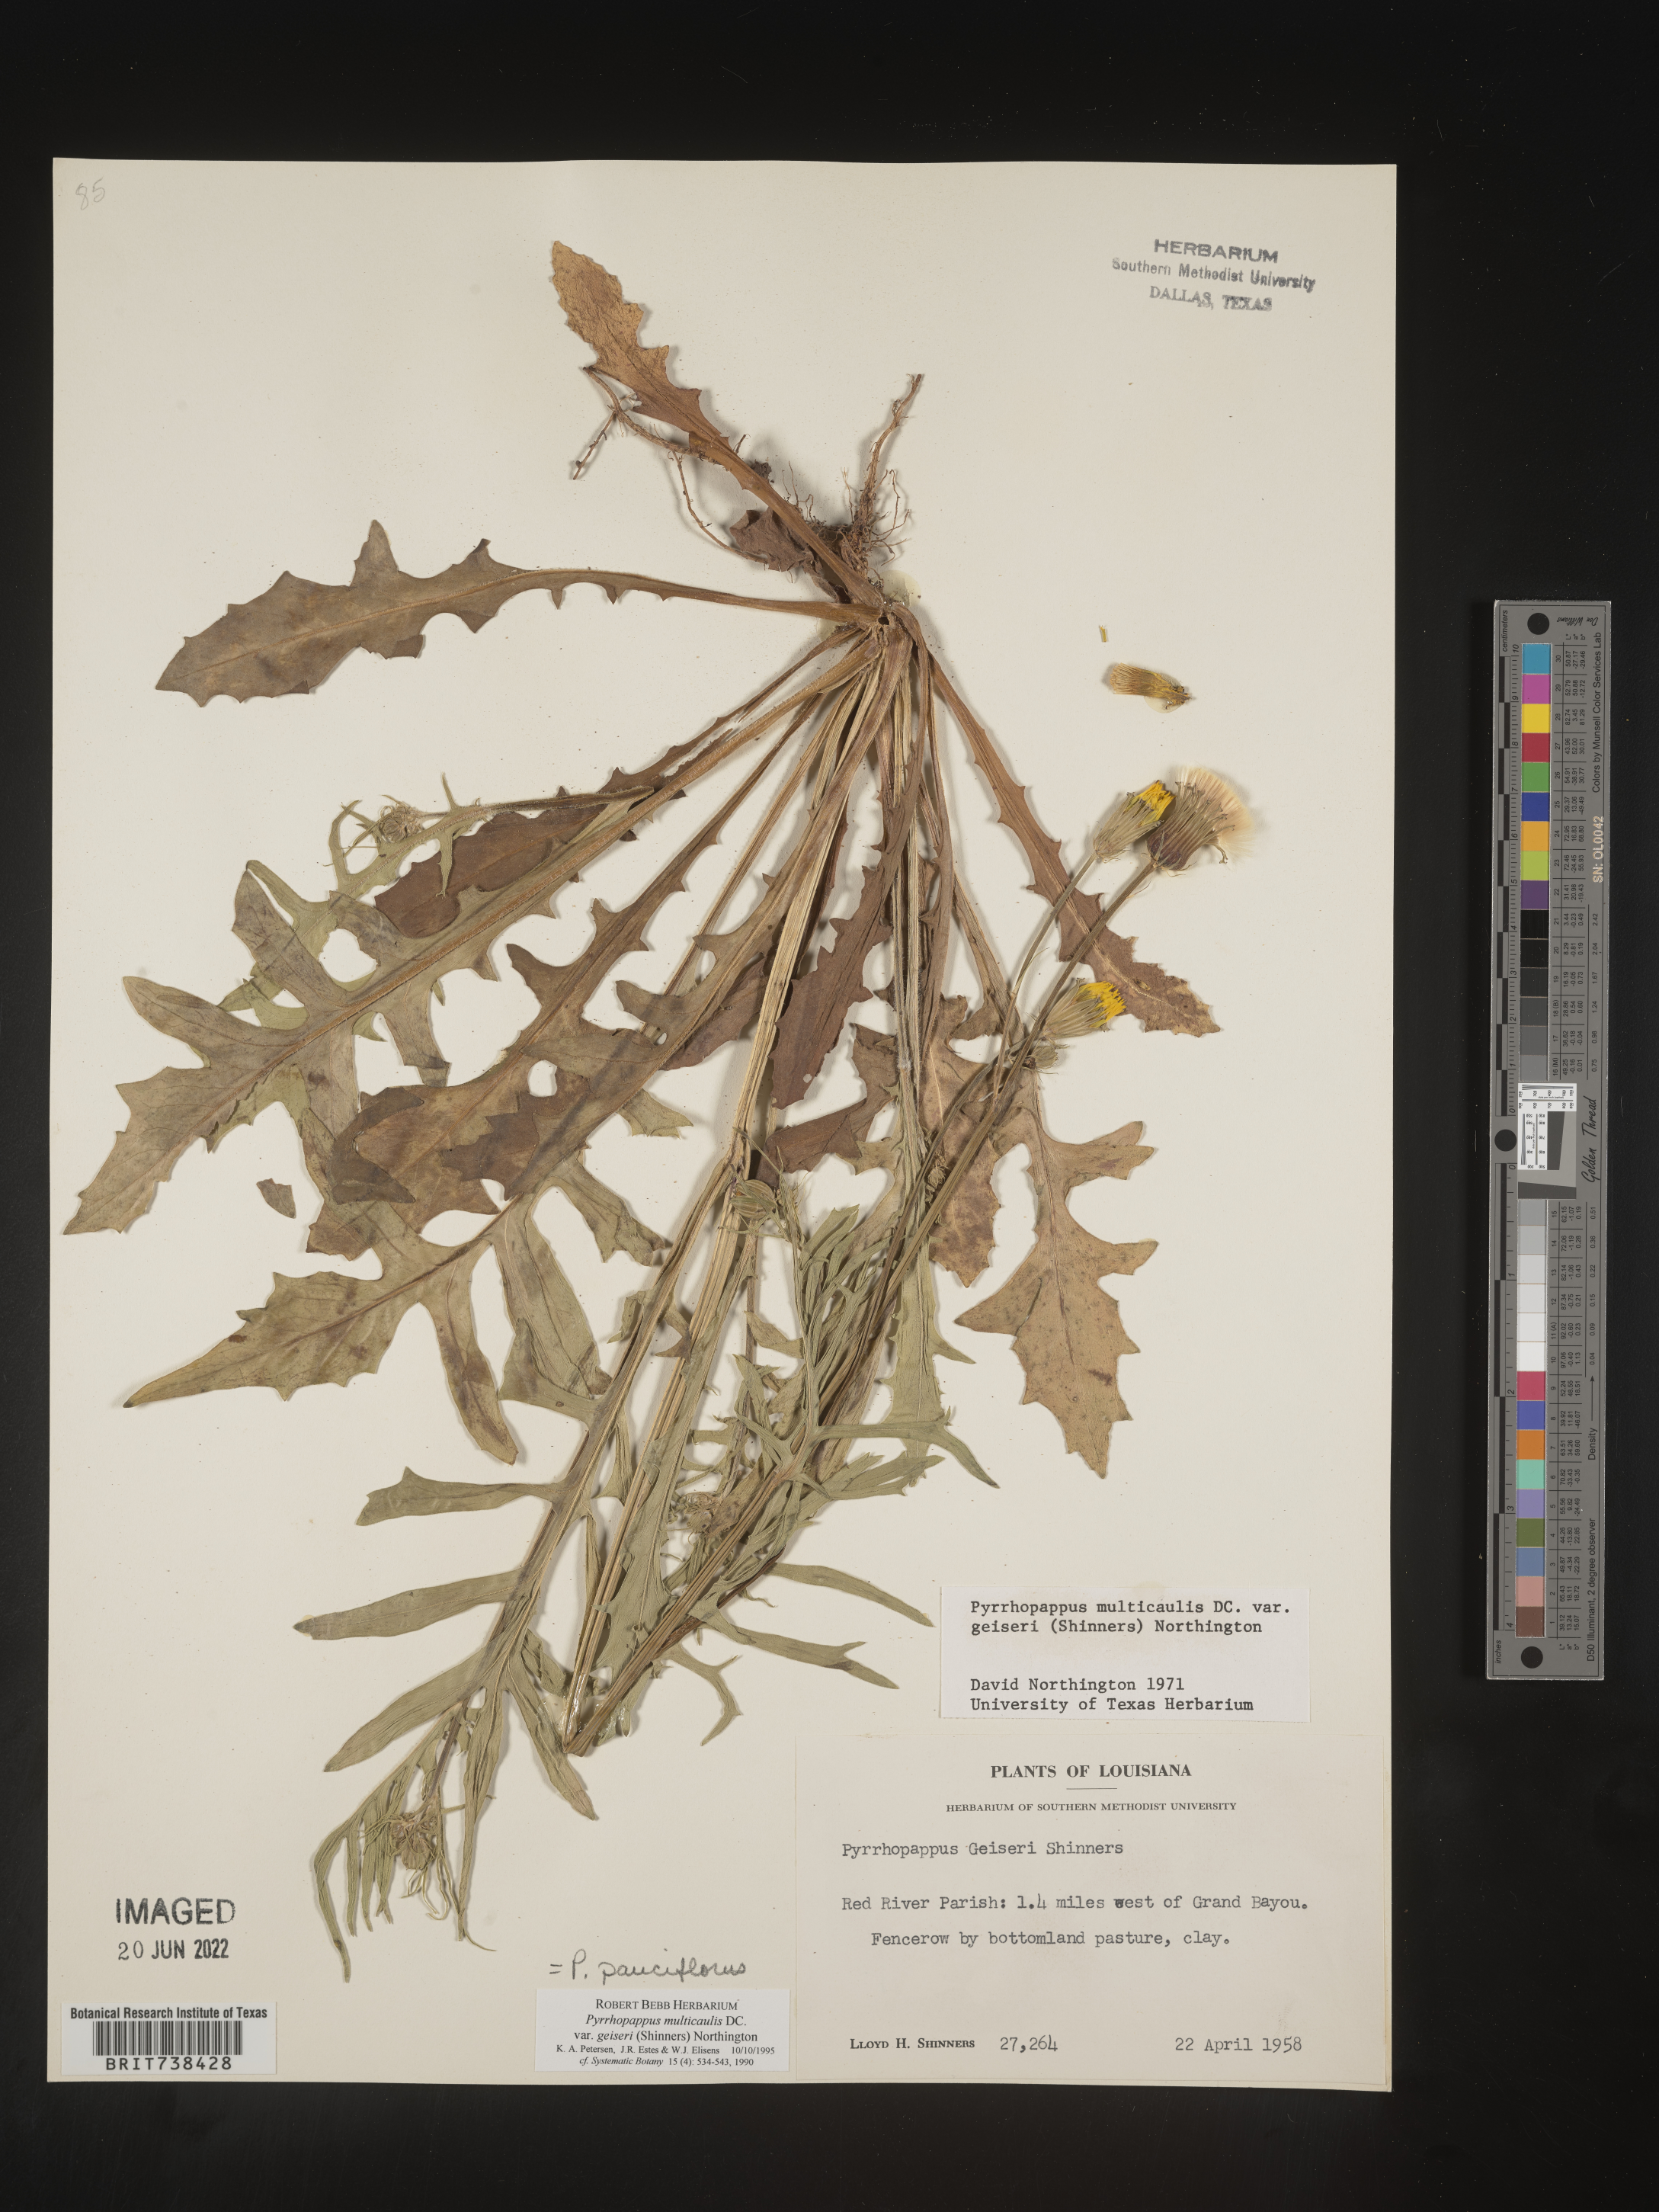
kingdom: Plantae
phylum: Tracheophyta
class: Magnoliopsida
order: Asterales
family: Asteraceae
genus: Pyrrhopappus
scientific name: Pyrrhopappus pauciflorus
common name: Texas false dandelion
